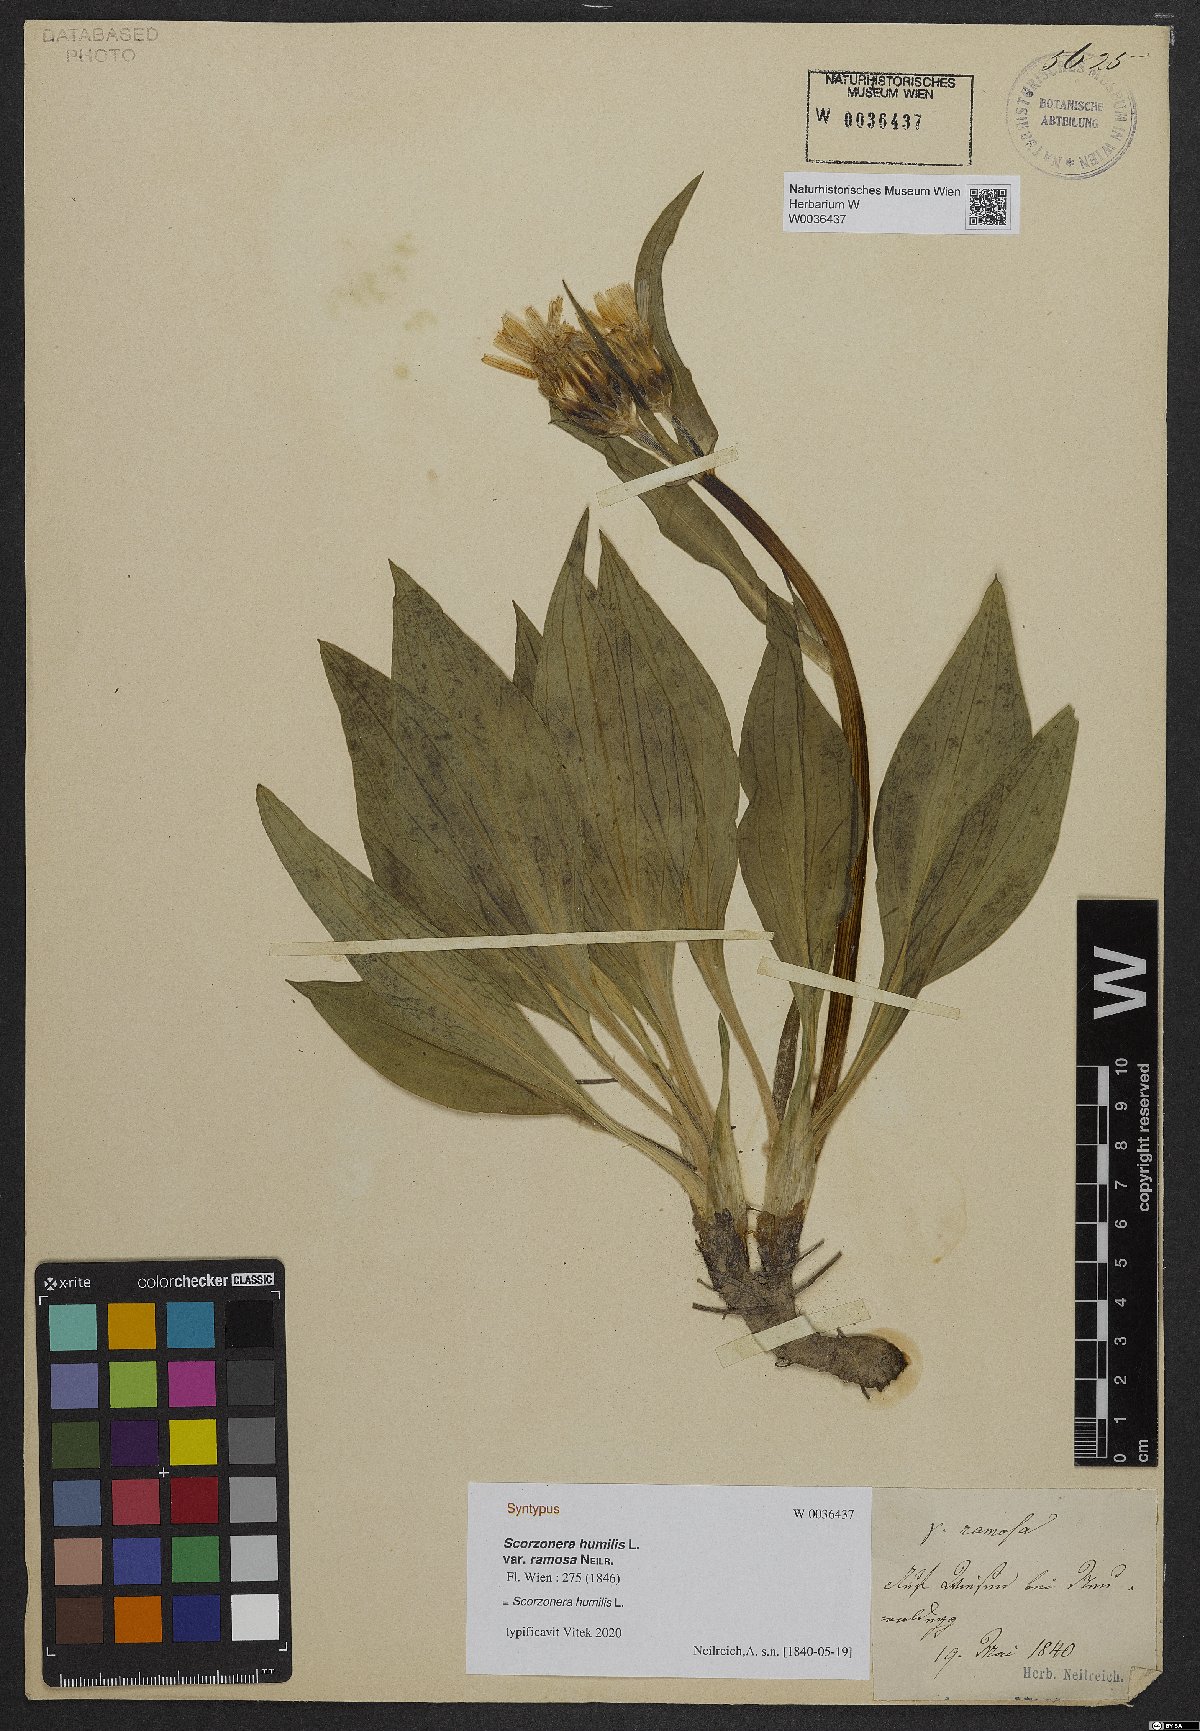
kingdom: Plantae
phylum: Tracheophyta
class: Magnoliopsida
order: Asterales
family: Asteraceae
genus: Scorzonera
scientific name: Scorzonera humilis
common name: Viper's-grass
